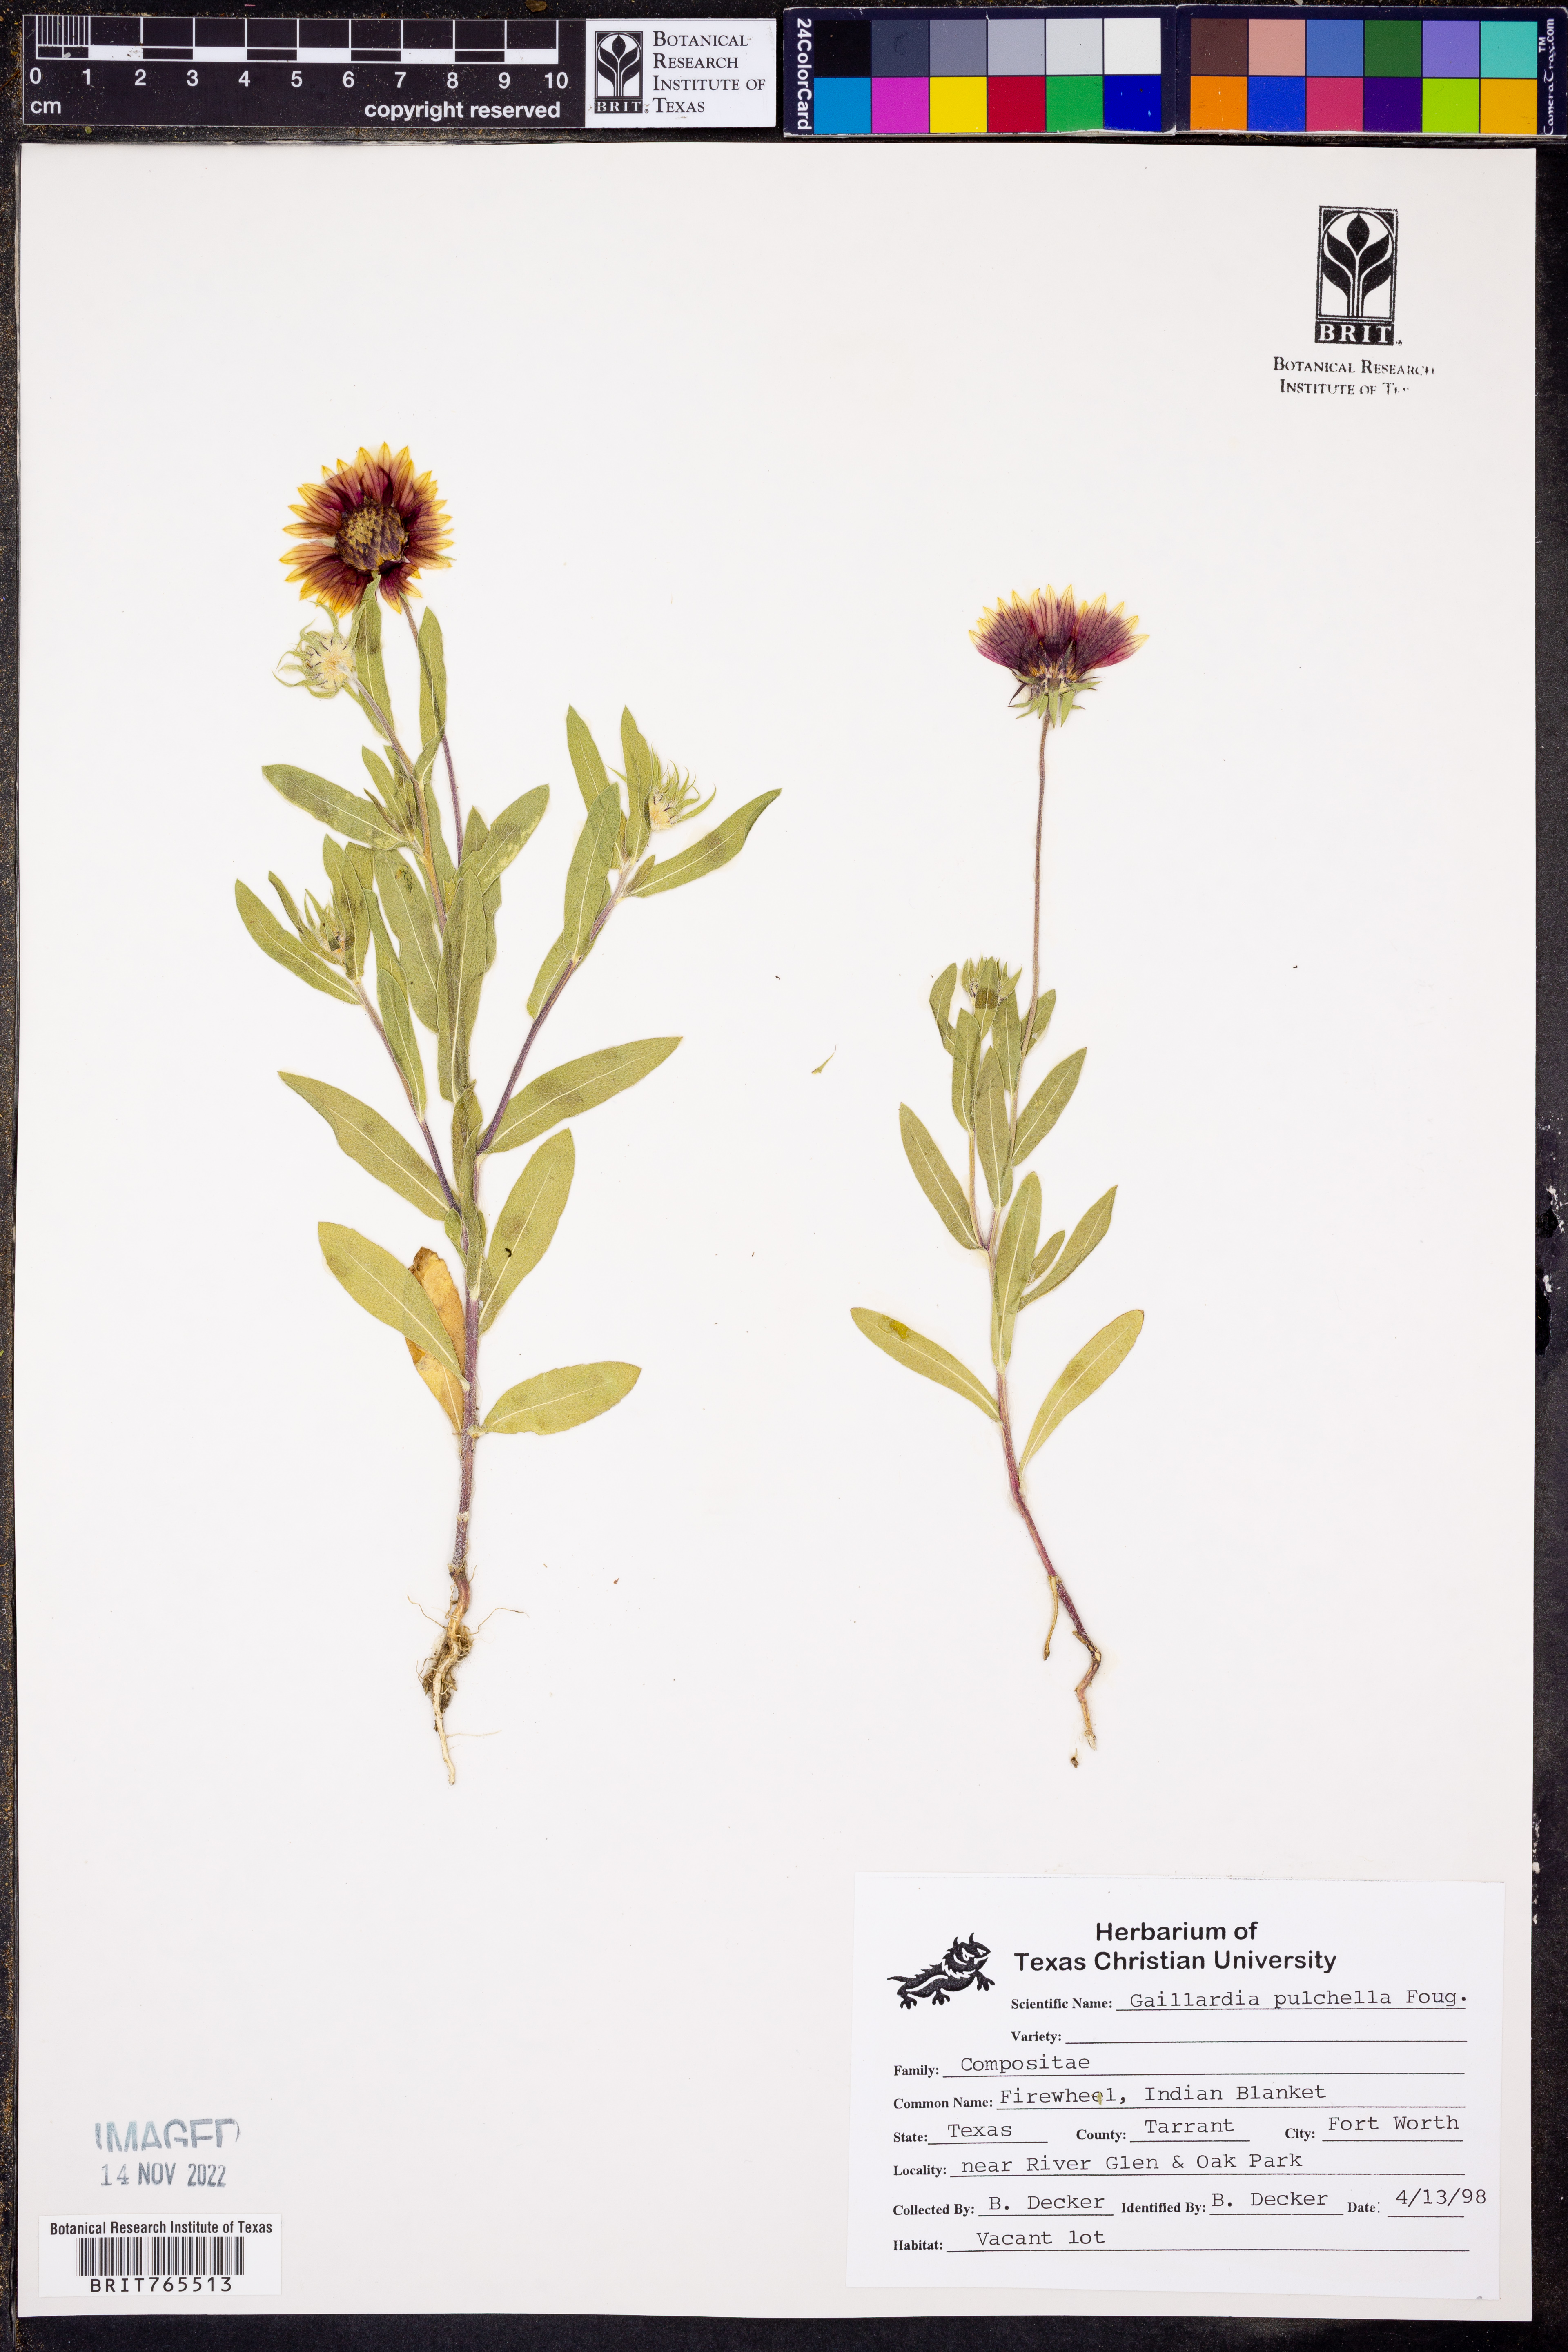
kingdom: Plantae
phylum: Tracheophyta
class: Magnoliopsida
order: Asterales
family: Asteraceae
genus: Gaillardia
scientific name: Gaillardia pulchella
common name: Firewheel
